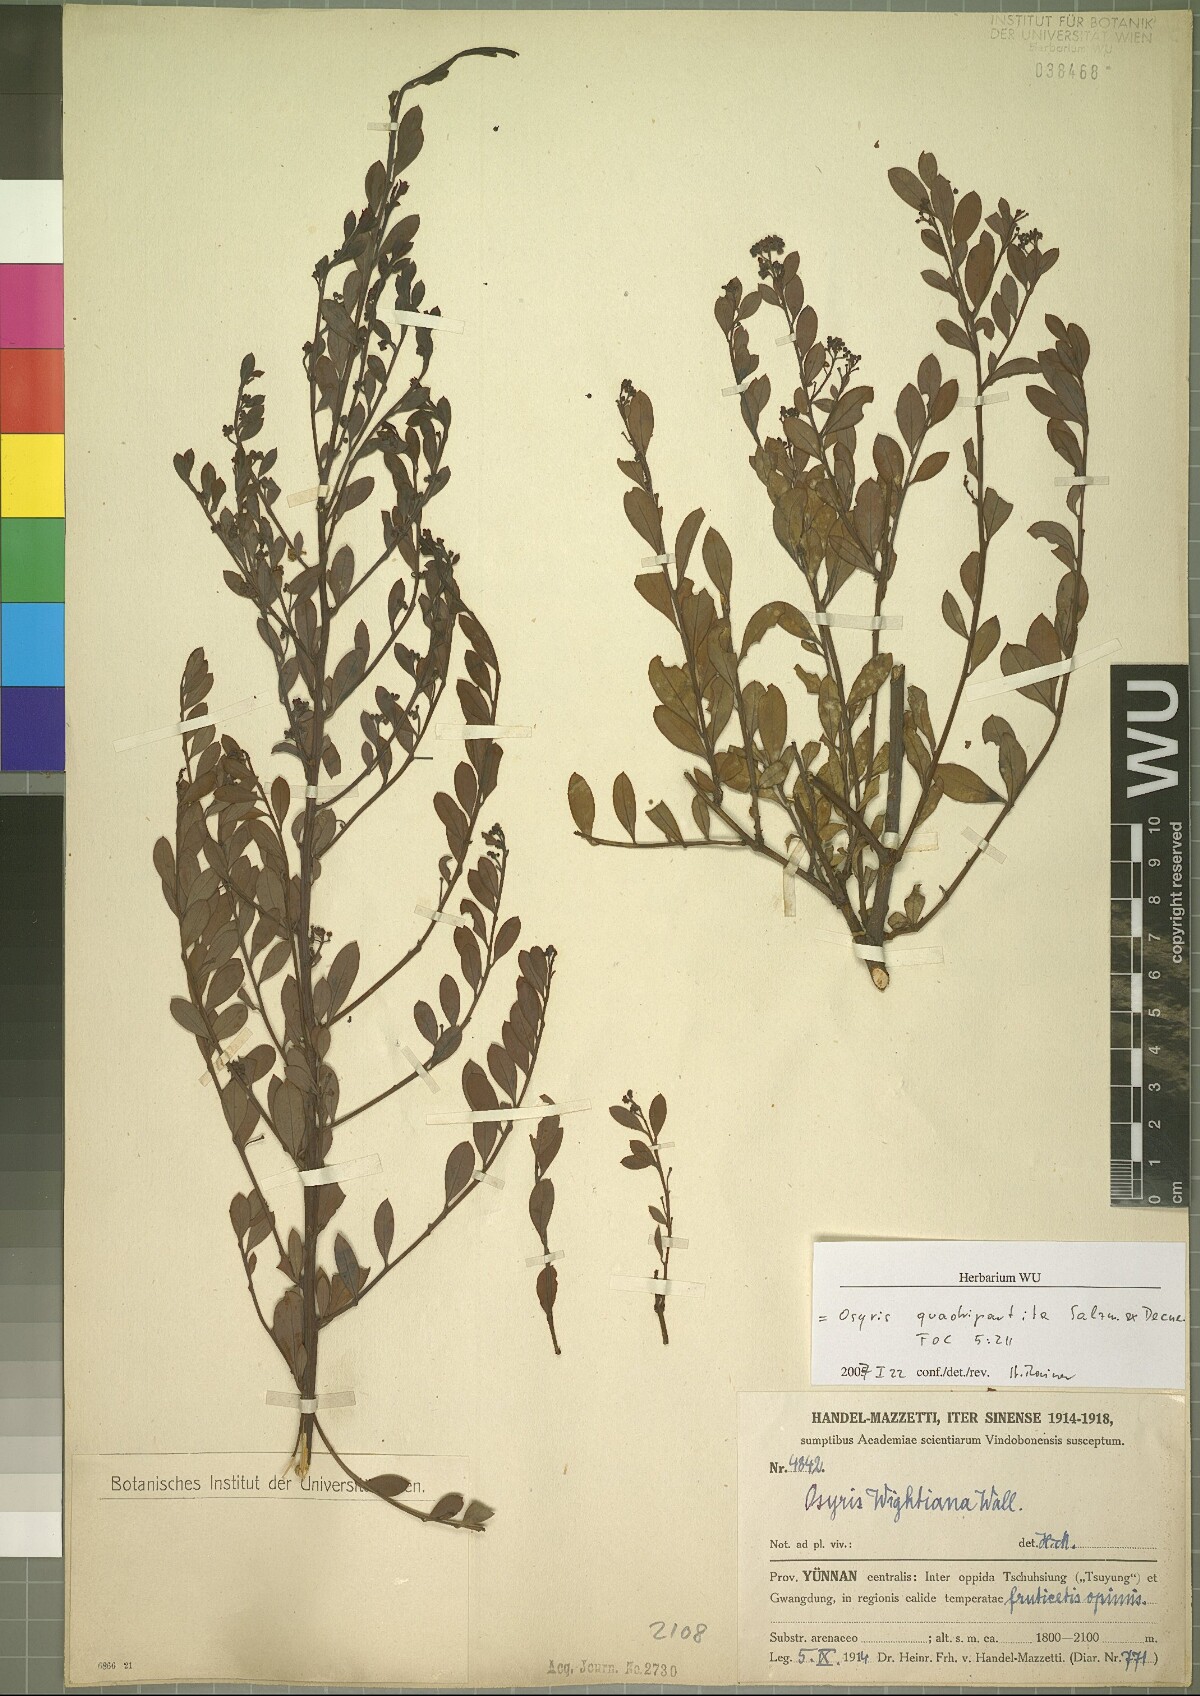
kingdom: Plantae
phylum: Tracheophyta
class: Magnoliopsida
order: Santalales
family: Santalaceae
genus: Osyris
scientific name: Osyris quadripartita
